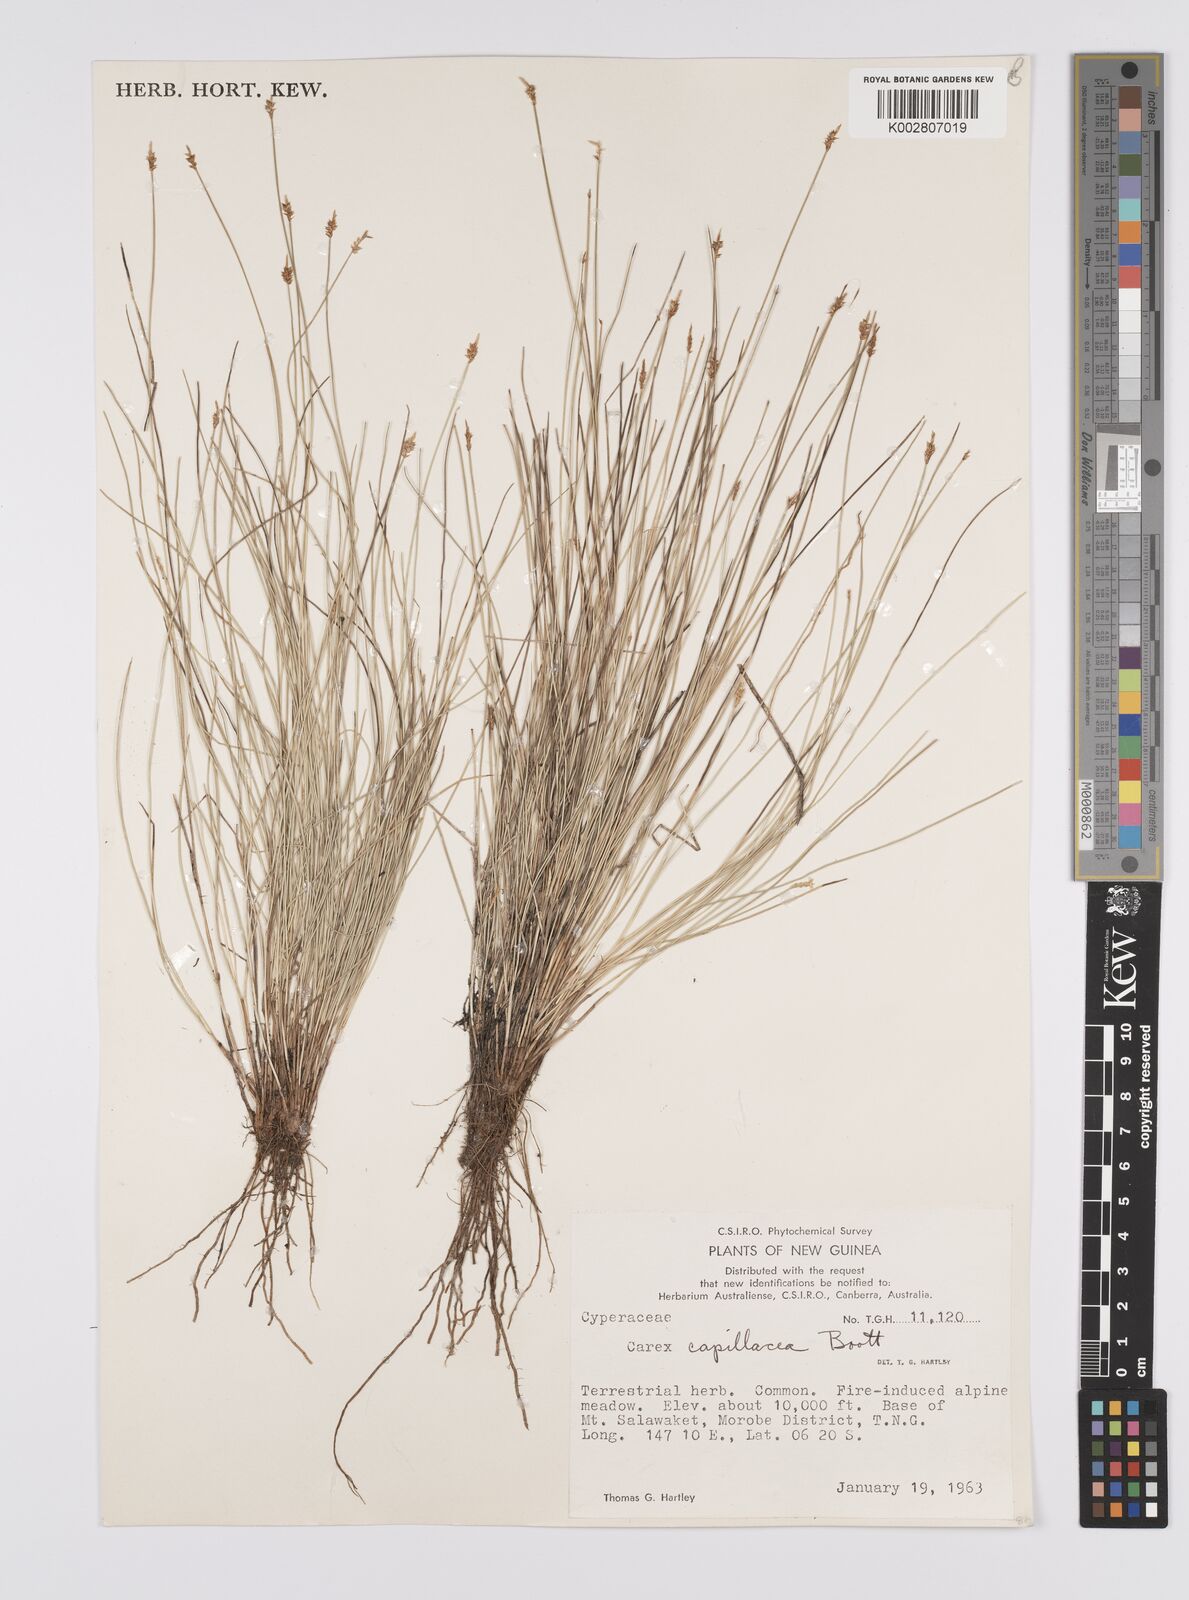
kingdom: Plantae
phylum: Tracheophyta
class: Liliopsida
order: Poales
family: Cyperaceae
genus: Carex
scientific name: Carex capillacea
